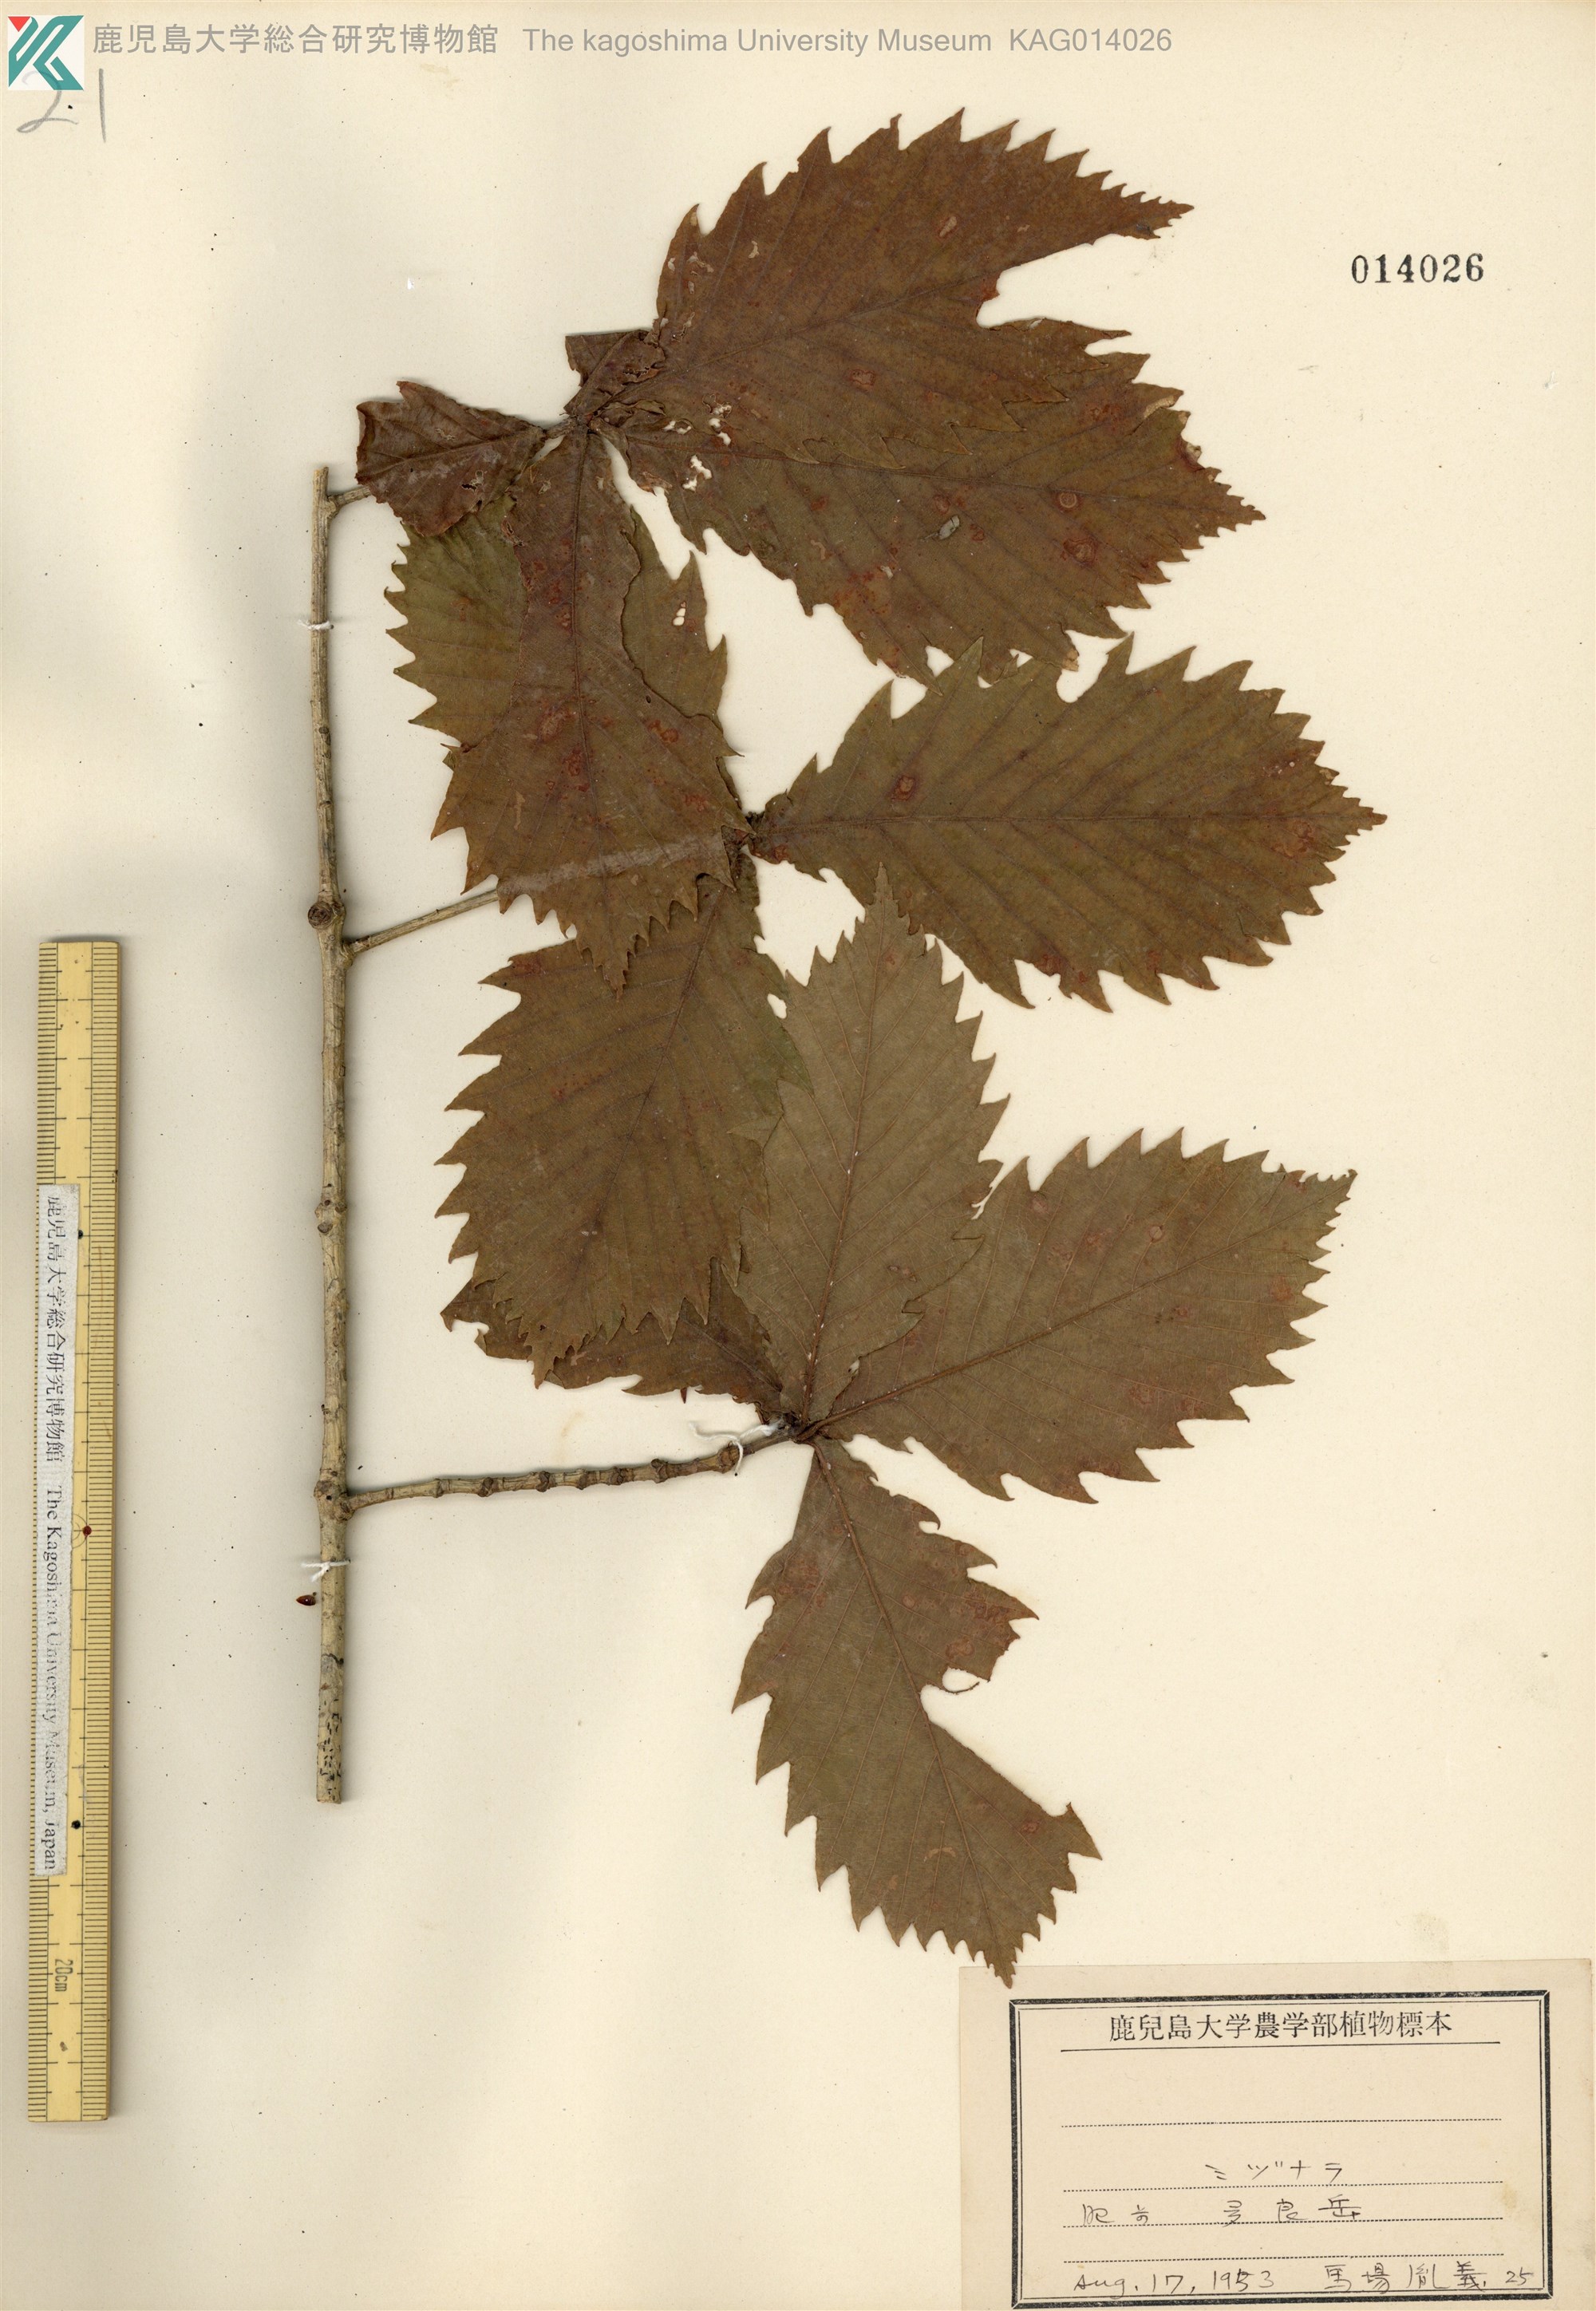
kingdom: Plantae
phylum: Tracheophyta
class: Magnoliopsida
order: Fagales
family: Fagaceae
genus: Quercus
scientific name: Quercus crispula
